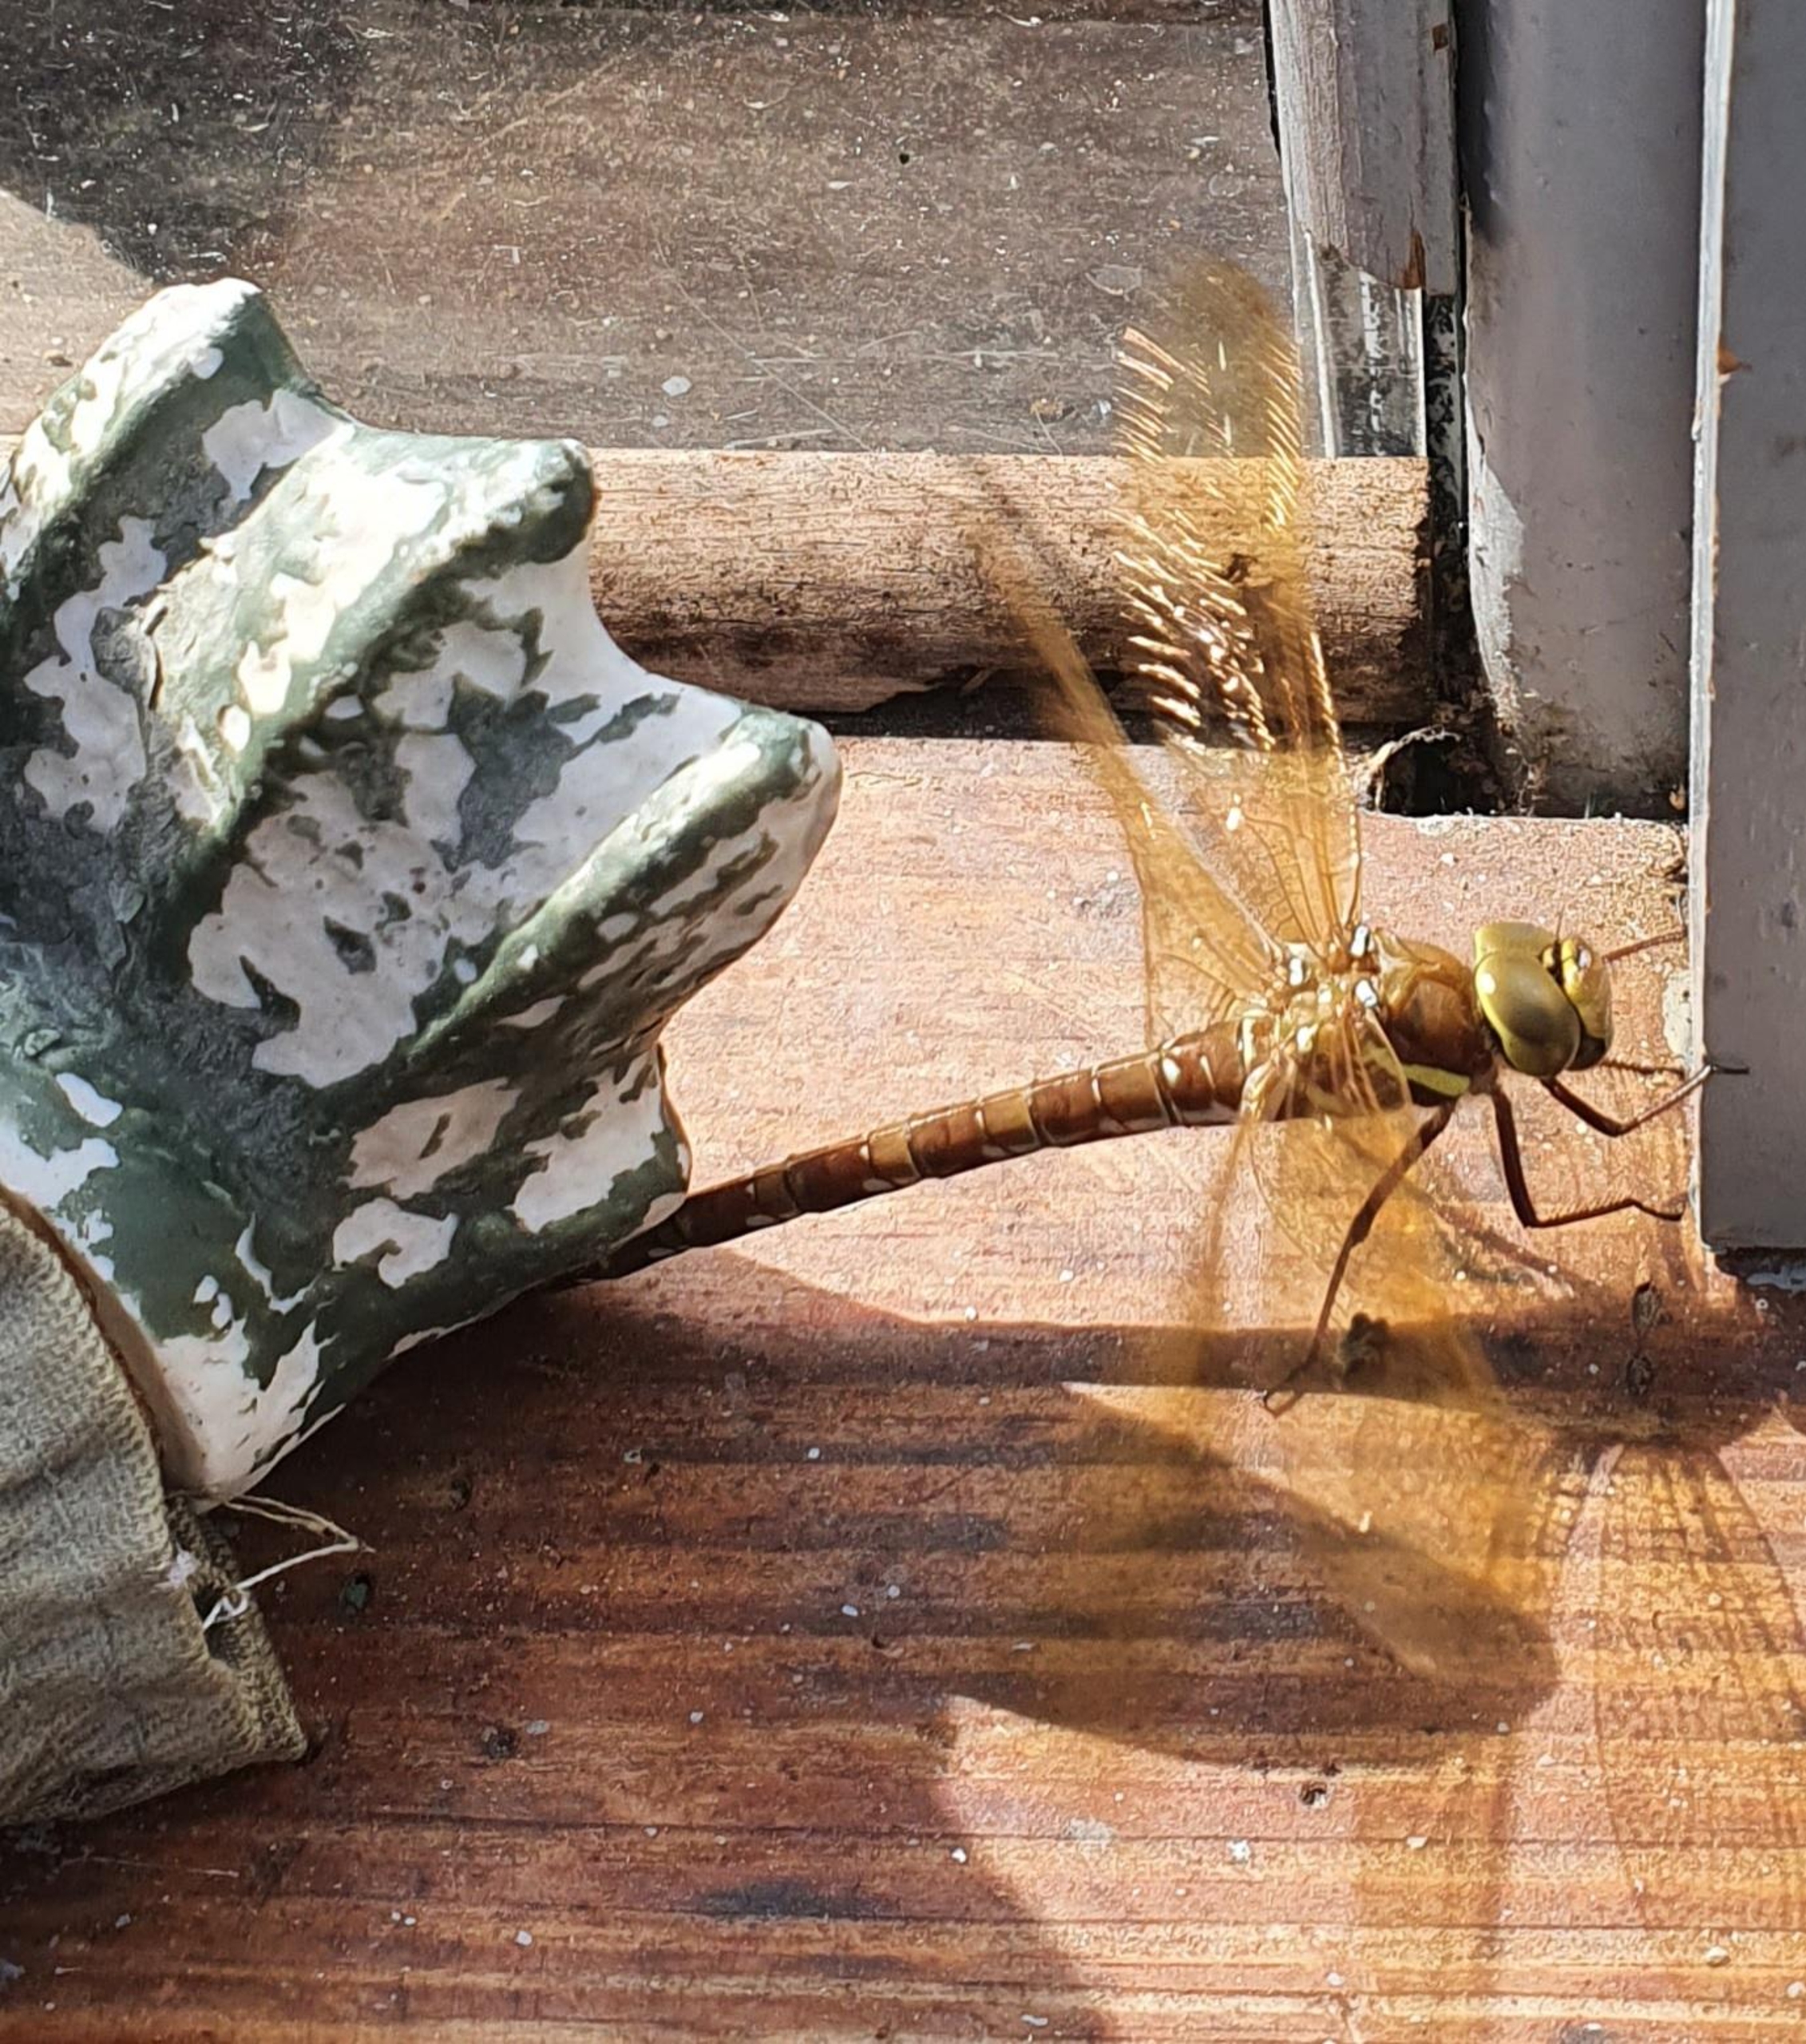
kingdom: Animalia
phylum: Arthropoda
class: Insecta
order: Odonata
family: Aeshnidae
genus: Aeshna
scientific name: Aeshna grandis
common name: Brun mosaikguldsmed
